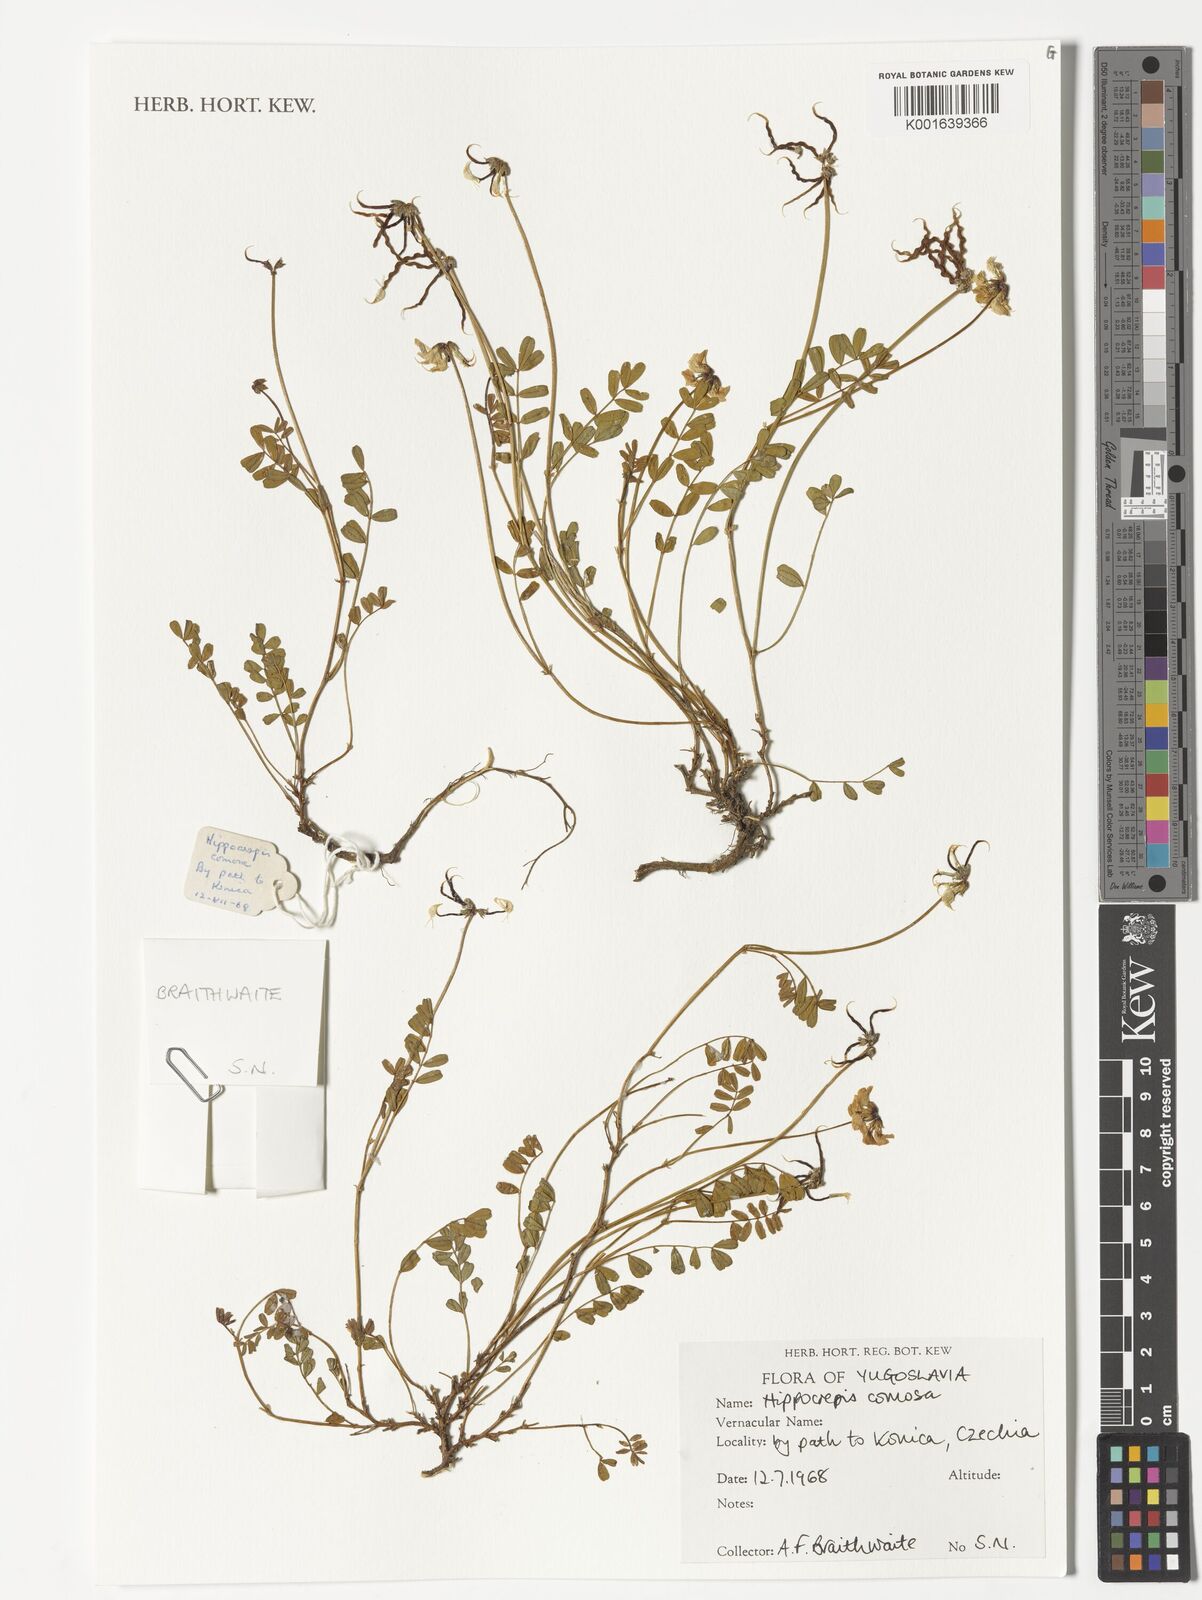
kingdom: Plantae
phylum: Tracheophyta
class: Magnoliopsida
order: Fabales
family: Fabaceae
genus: Hippocrepis
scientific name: Hippocrepis comosa
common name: Horseshoe vetch
